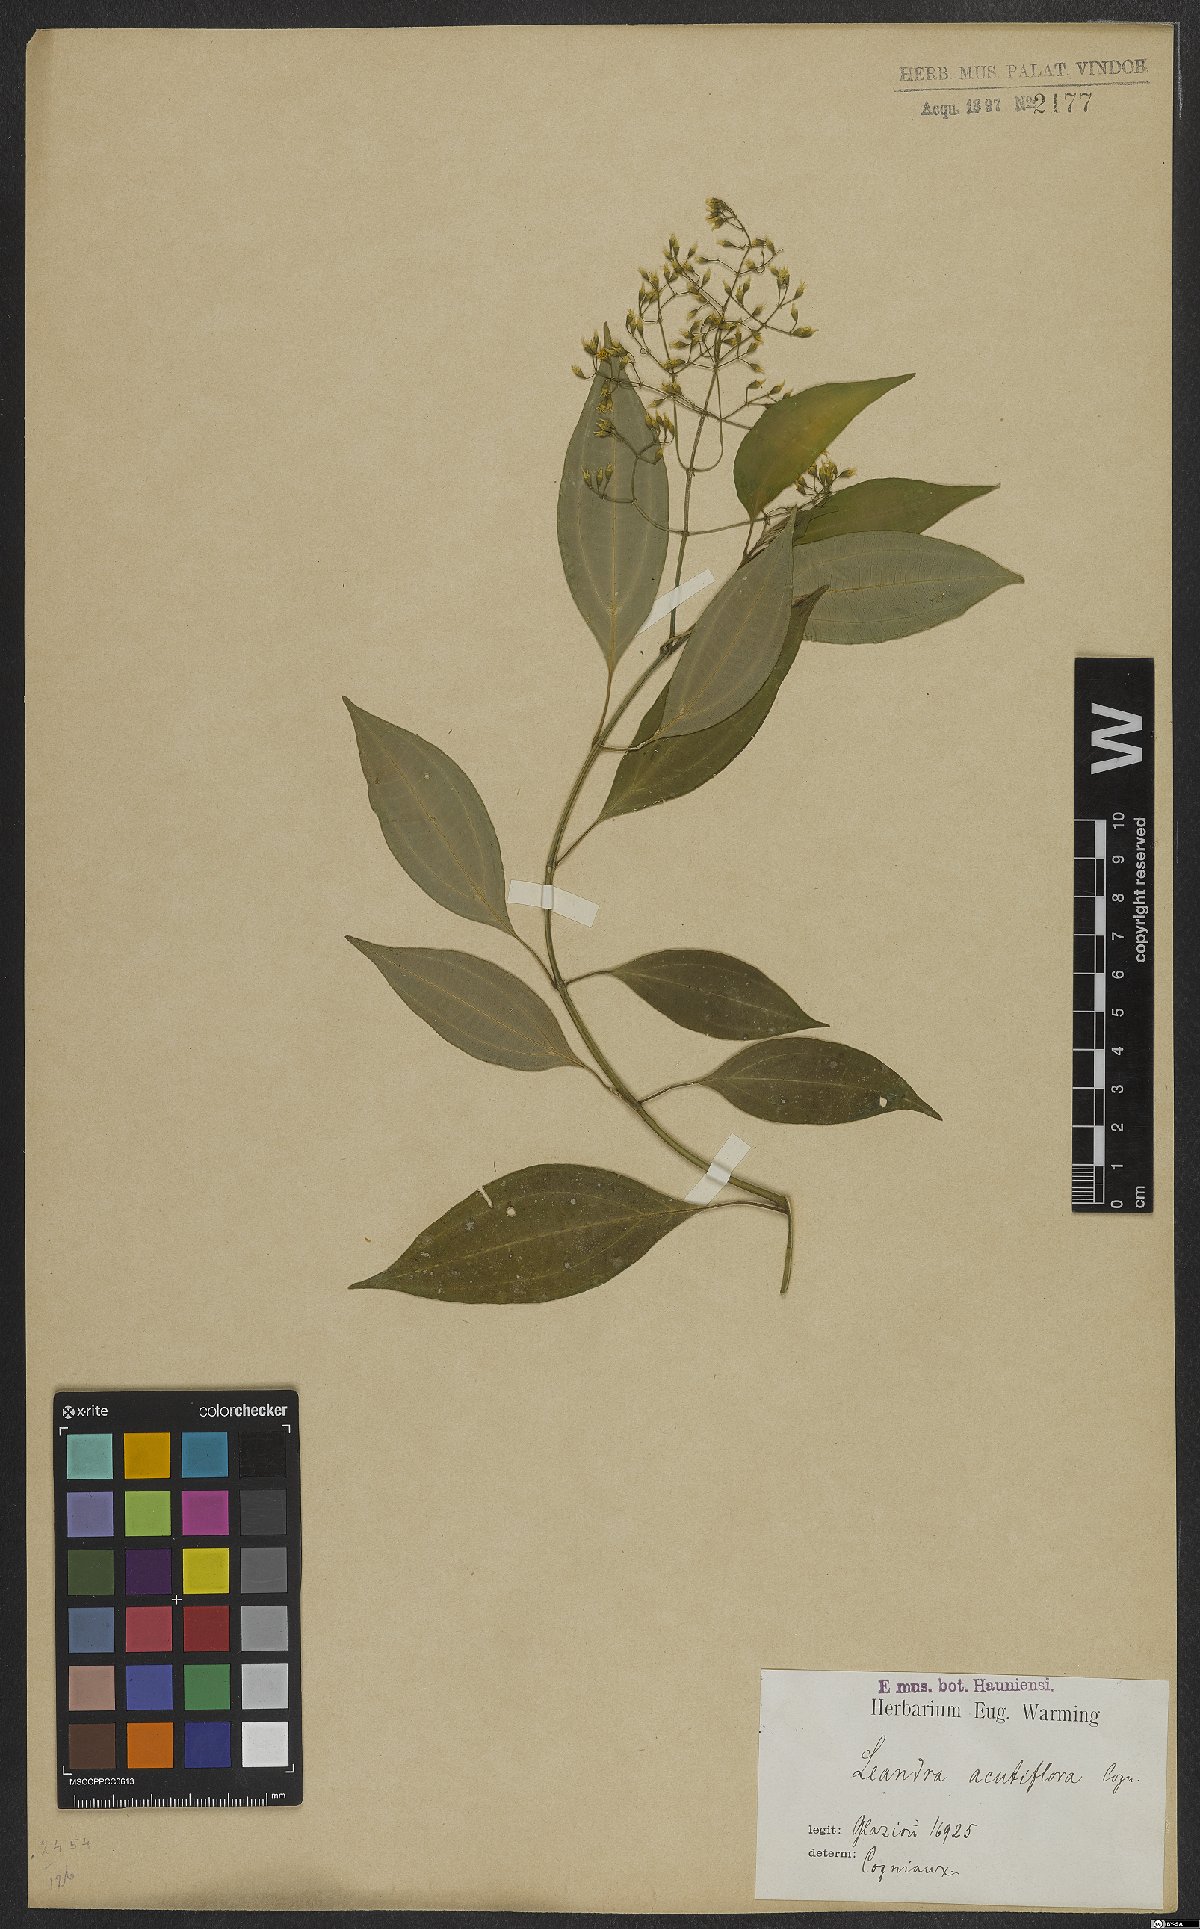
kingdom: Plantae
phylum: Tracheophyta
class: Magnoliopsida
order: Myrtales
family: Melastomataceae
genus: Miconia
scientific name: Miconia acutiflora
